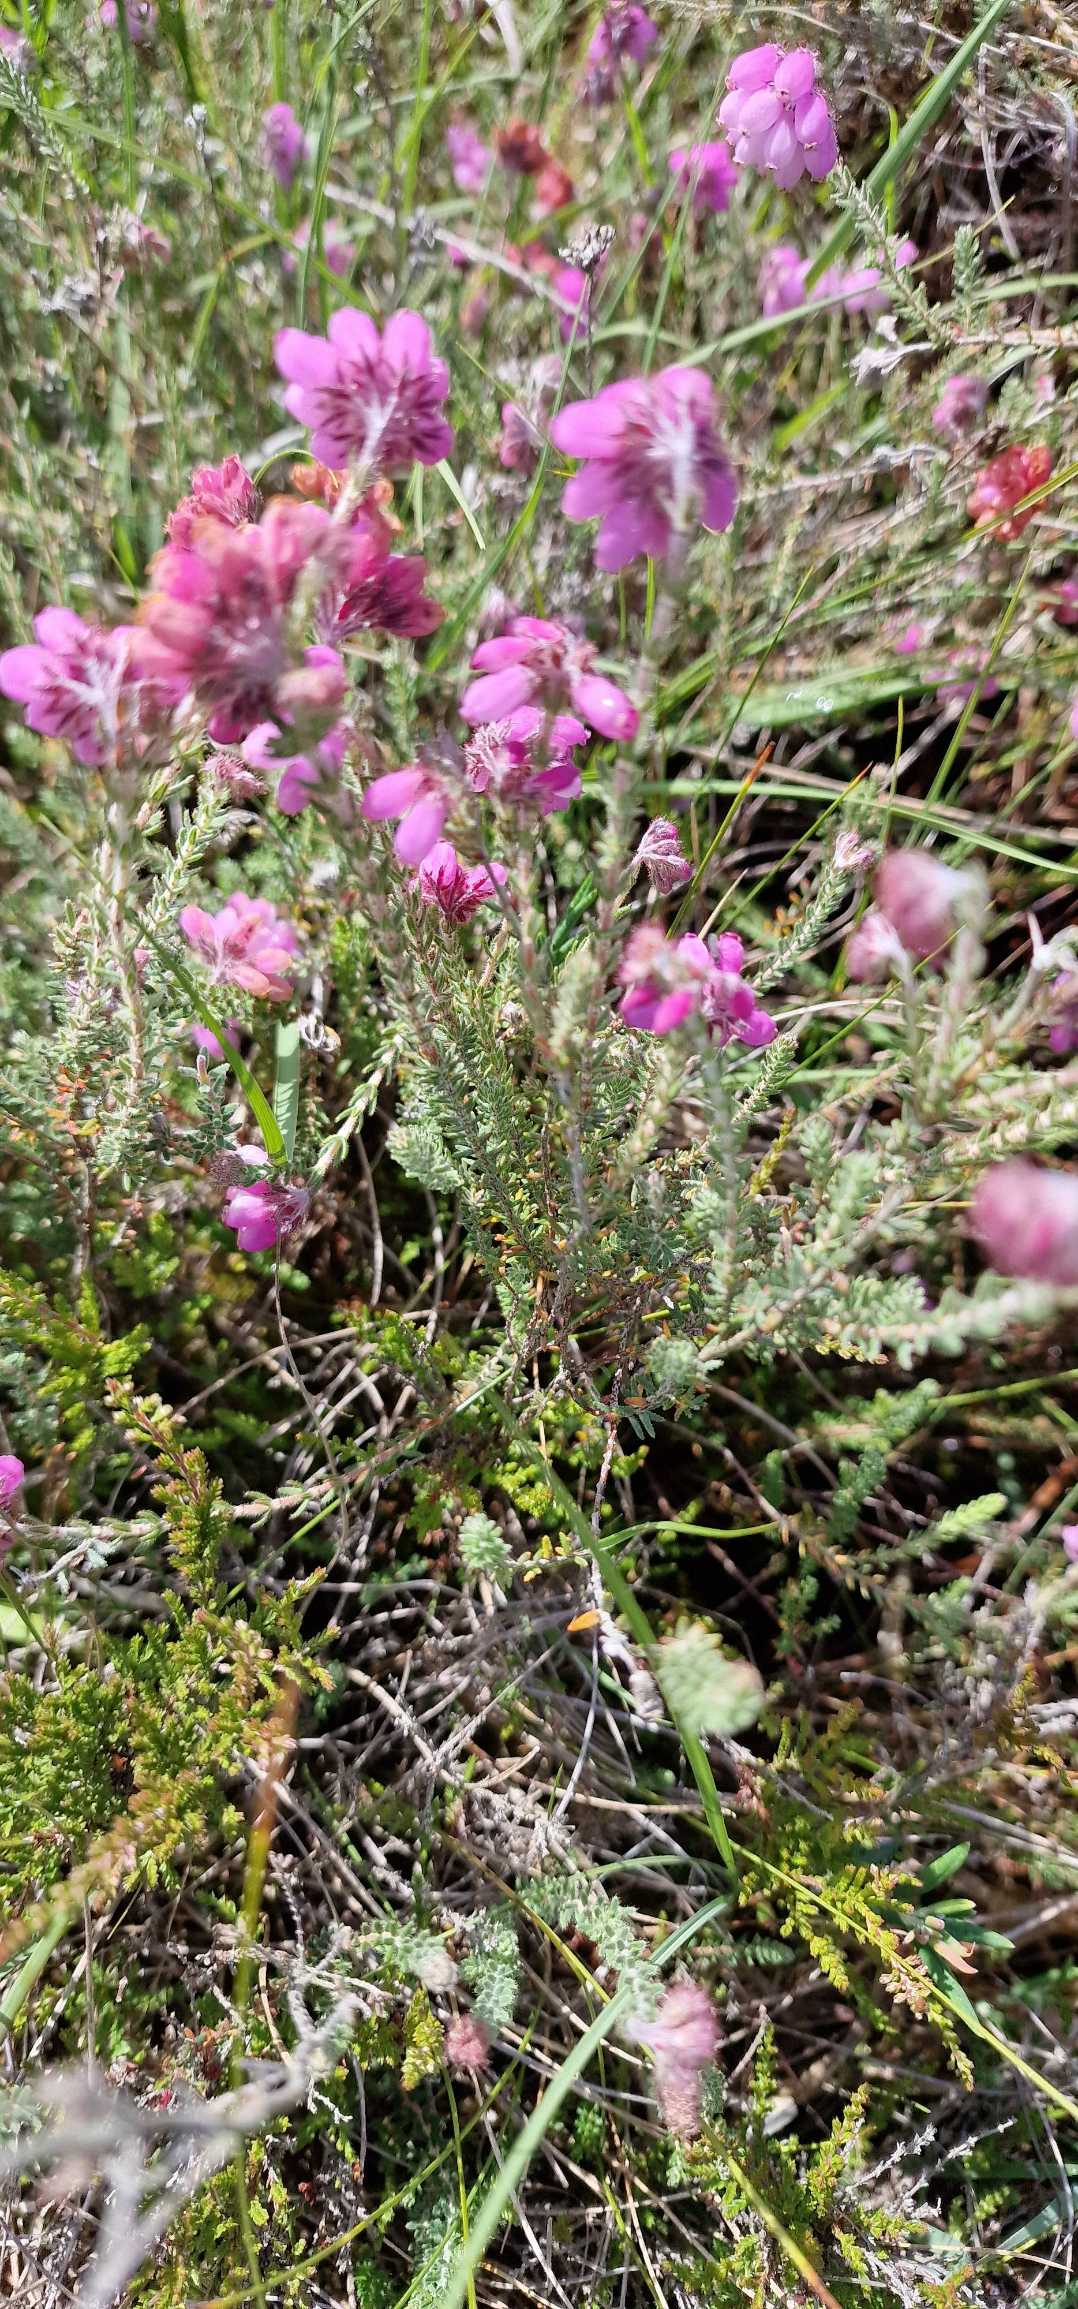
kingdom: Plantae
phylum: Tracheophyta
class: Magnoliopsida
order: Ericales
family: Ericaceae
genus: Erica
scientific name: Erica tetralix
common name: Klokkelyng
